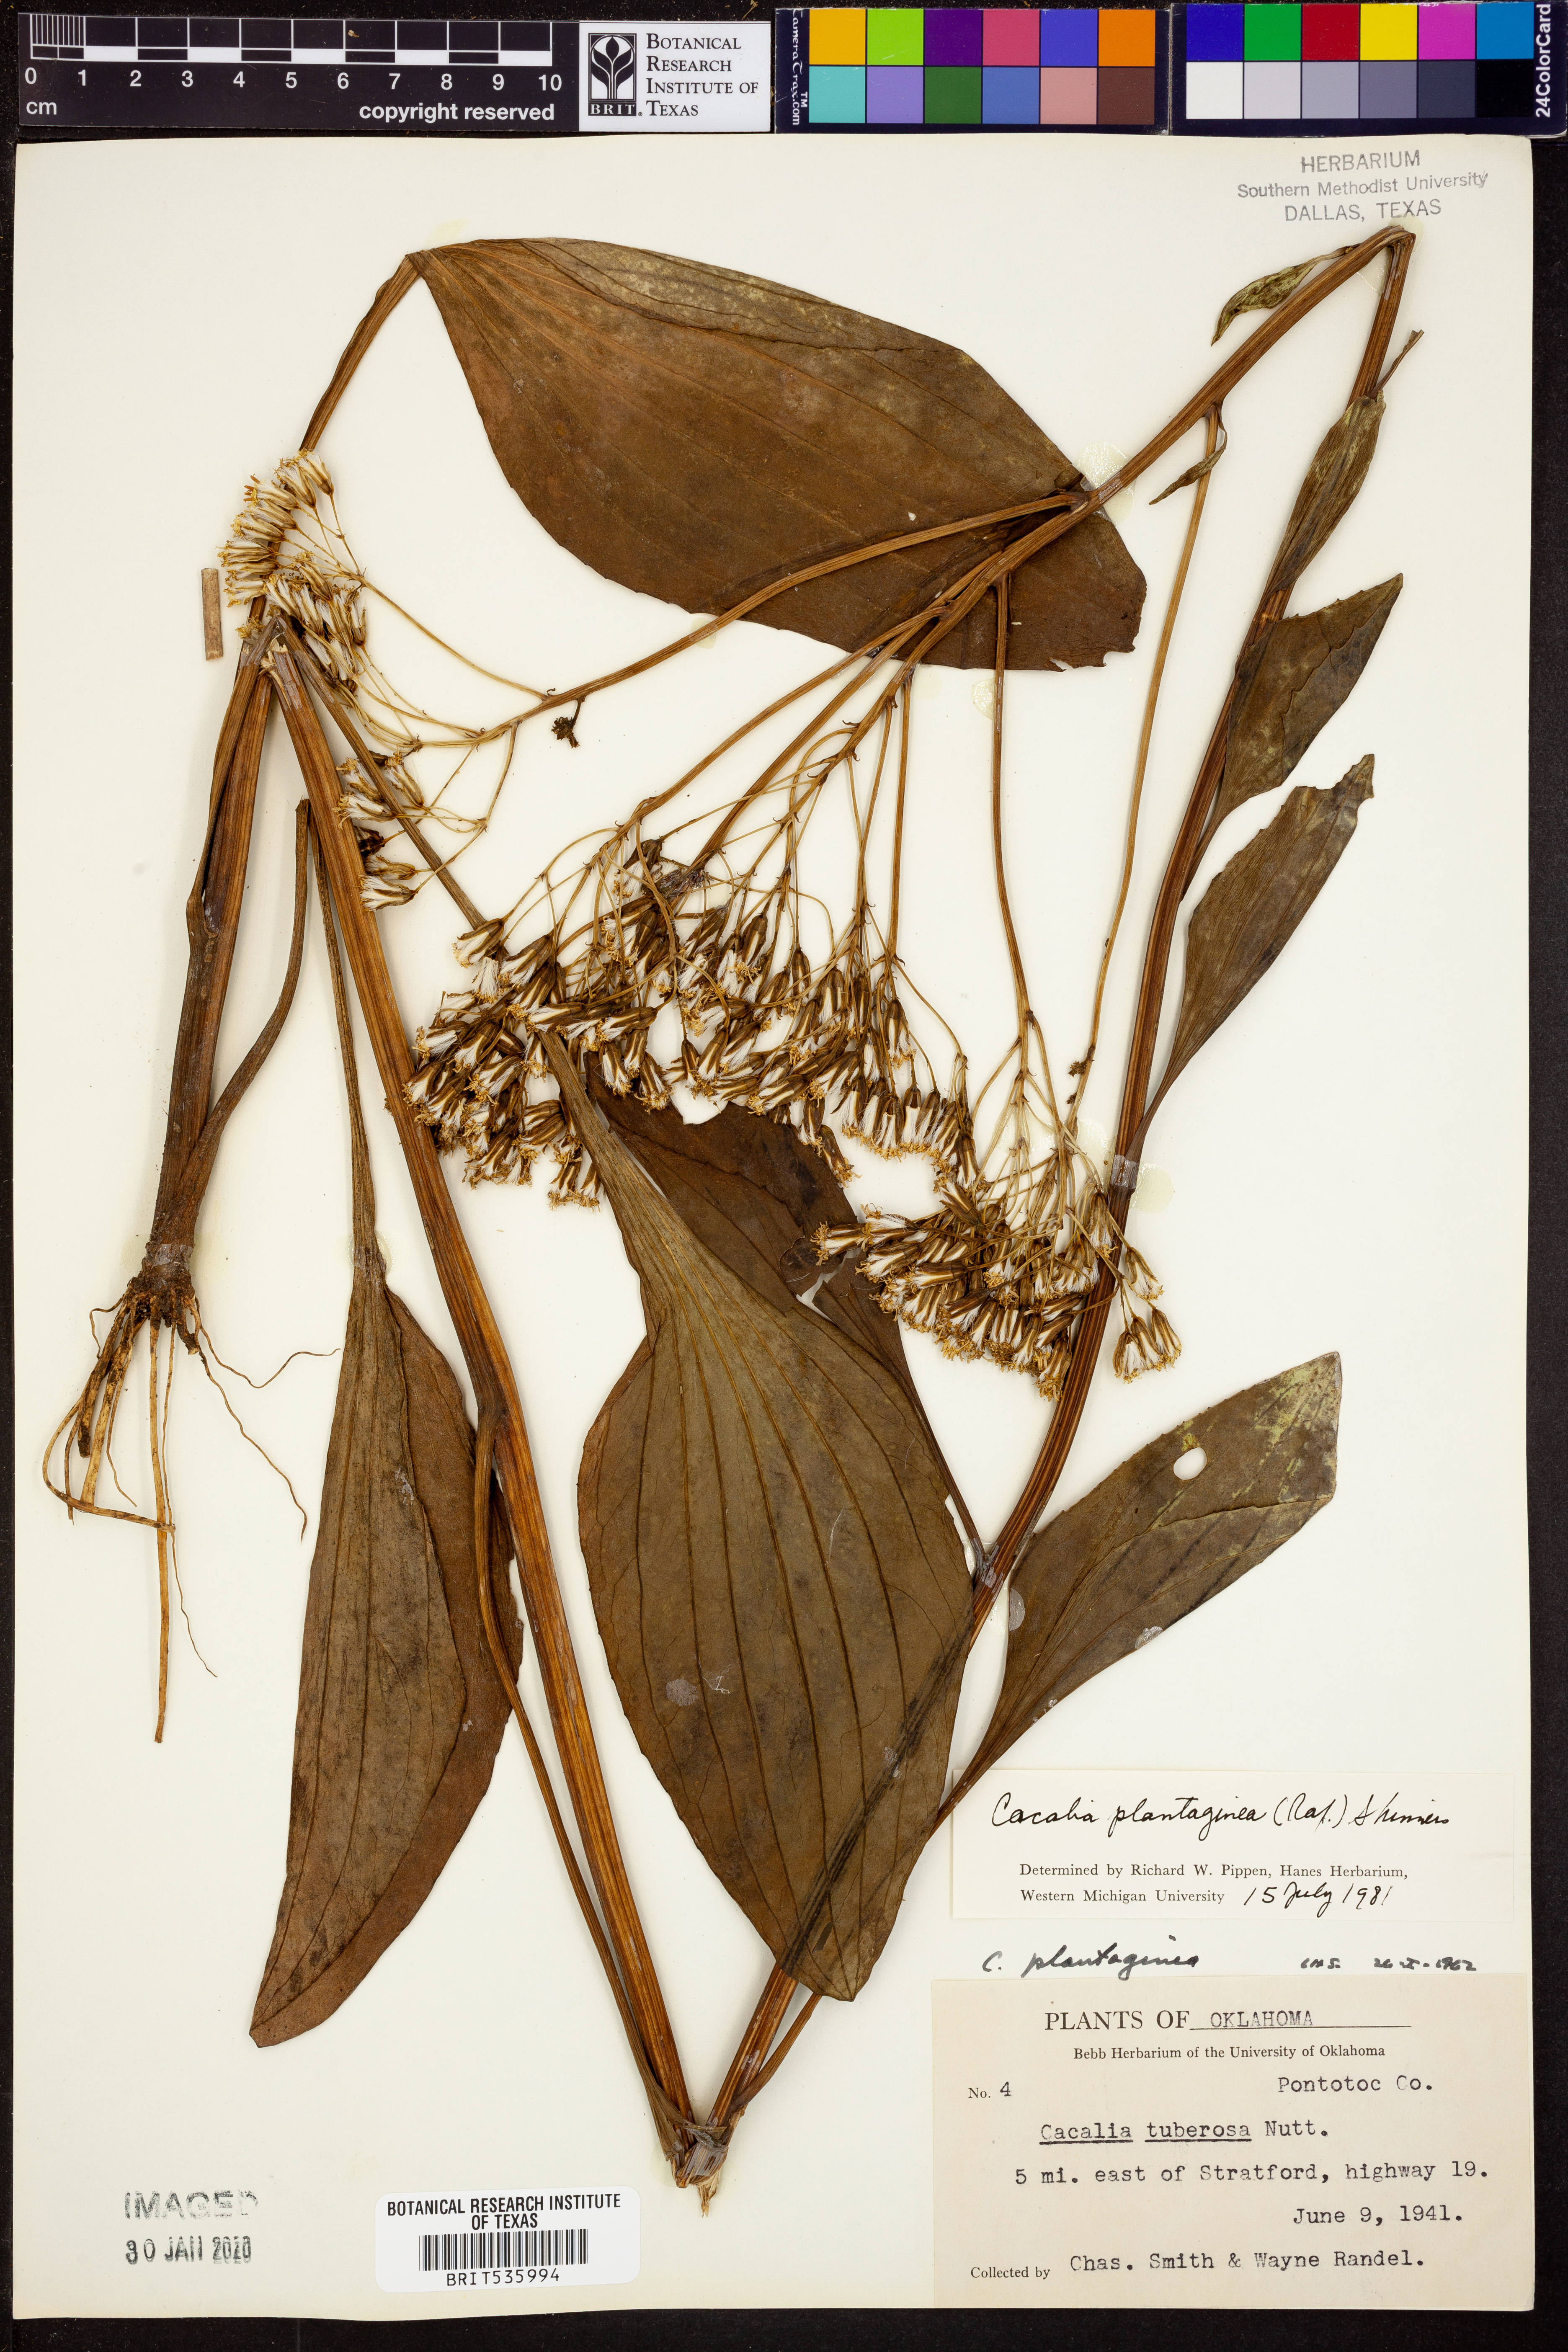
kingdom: Plantae
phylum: Tracheophyta
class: Magnoliopsida
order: Asterales
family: Asteraceae
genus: Arnoglossum
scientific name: Arnoglossum plantagineum
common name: Groove-stemmed indian-plantain
